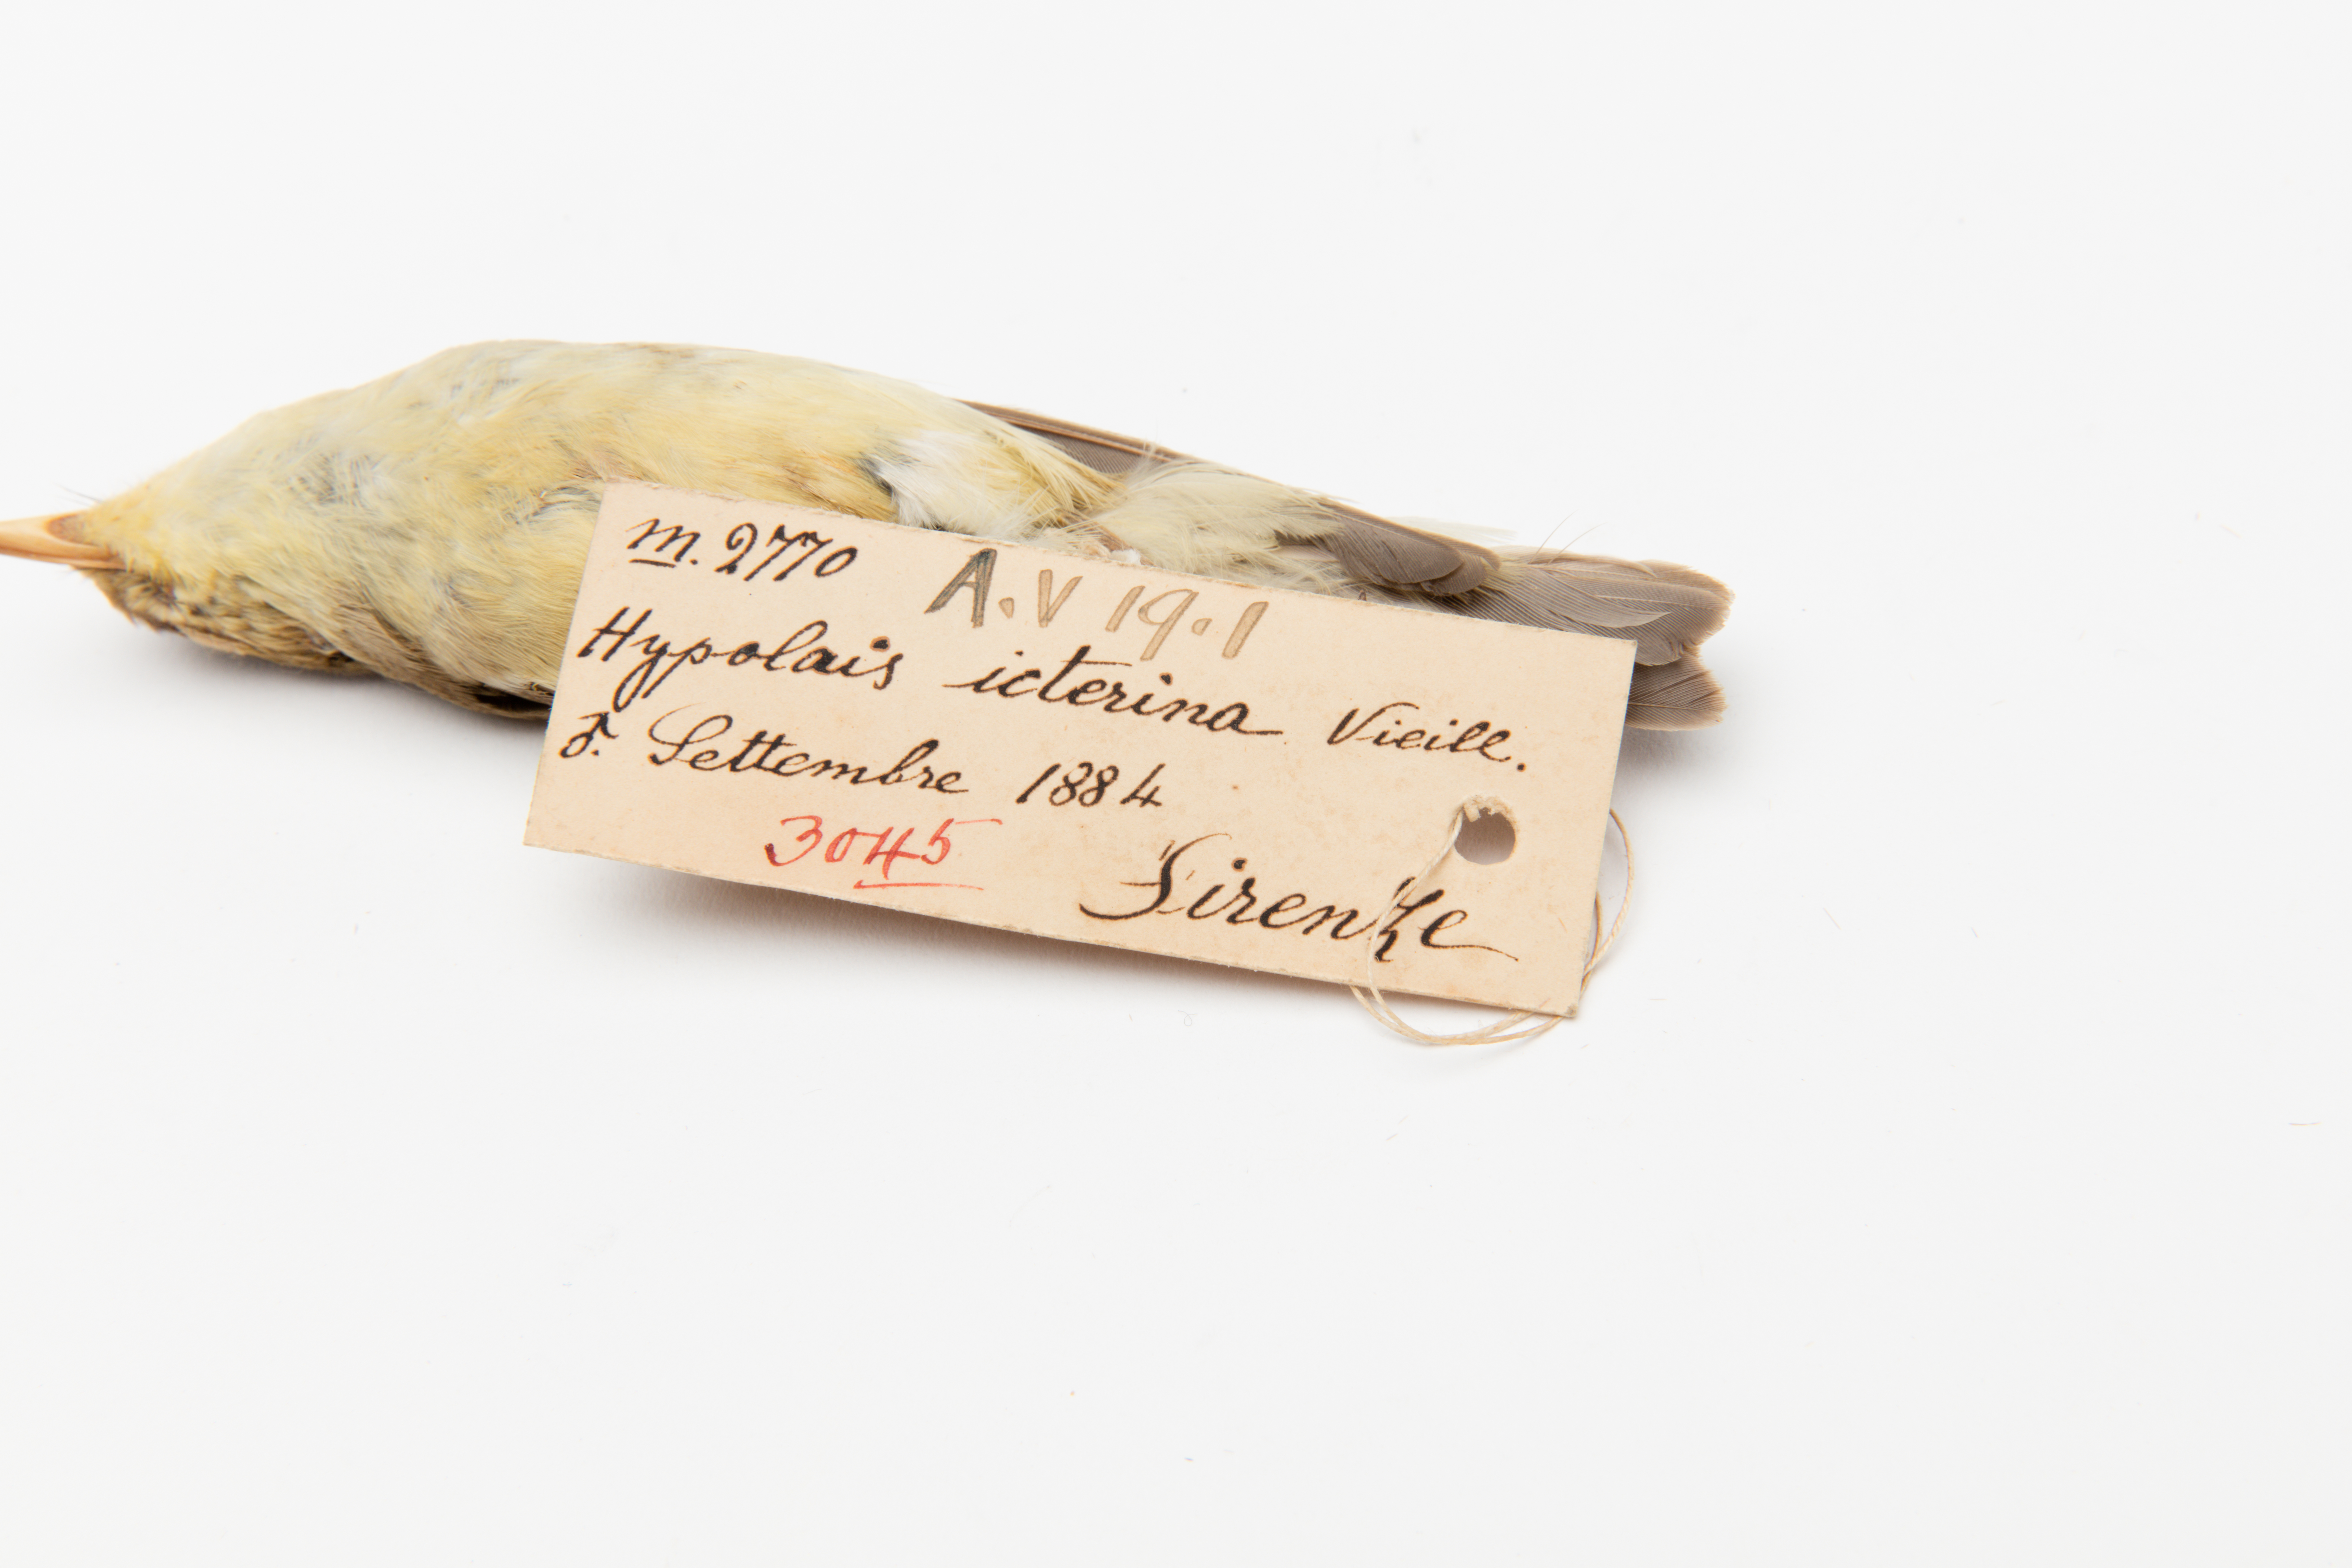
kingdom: Animalia
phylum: Chordata
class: Aves
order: Passeriformes
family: Acrocephalidae
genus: Hippolais
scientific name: Hippolais icterina
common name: Icterine warbler
